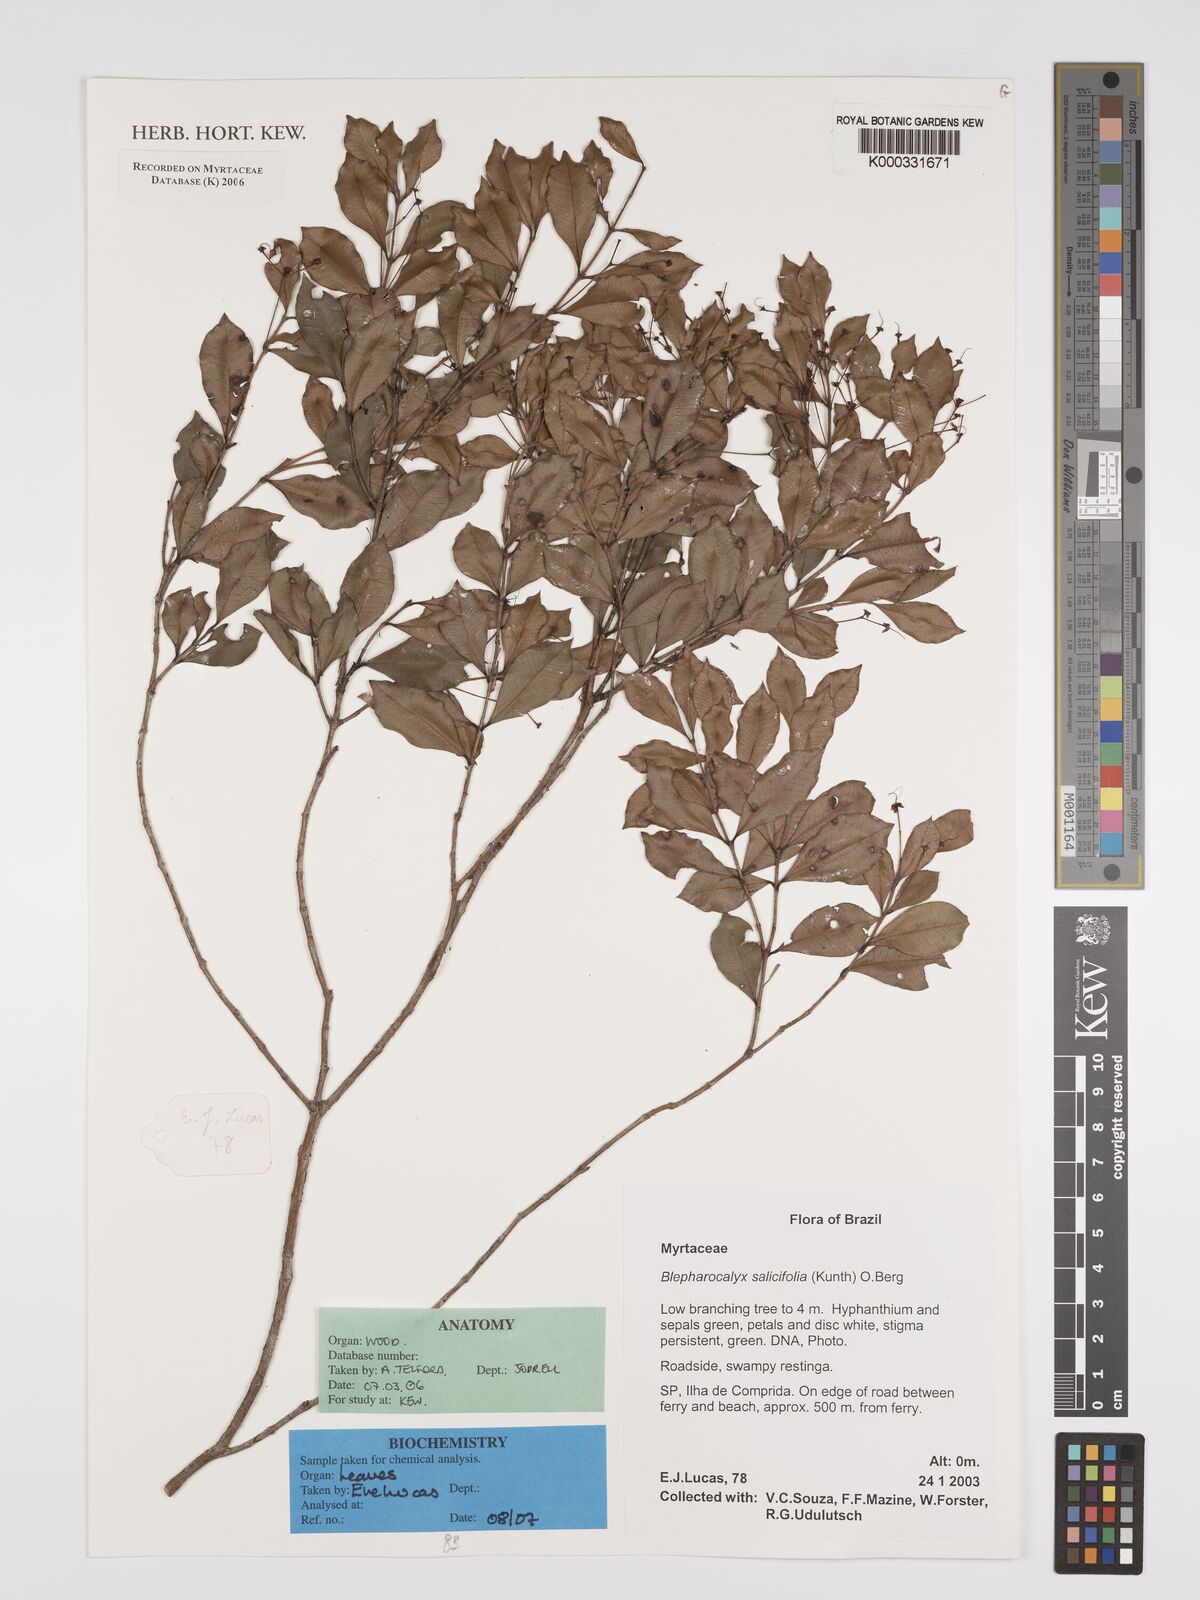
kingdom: Plantae
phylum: Tracheophyta
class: Magnoliopsida
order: Myrtales
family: Myrtaceae
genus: Blepharocalyx
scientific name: Blepharocalyx salicifolius
